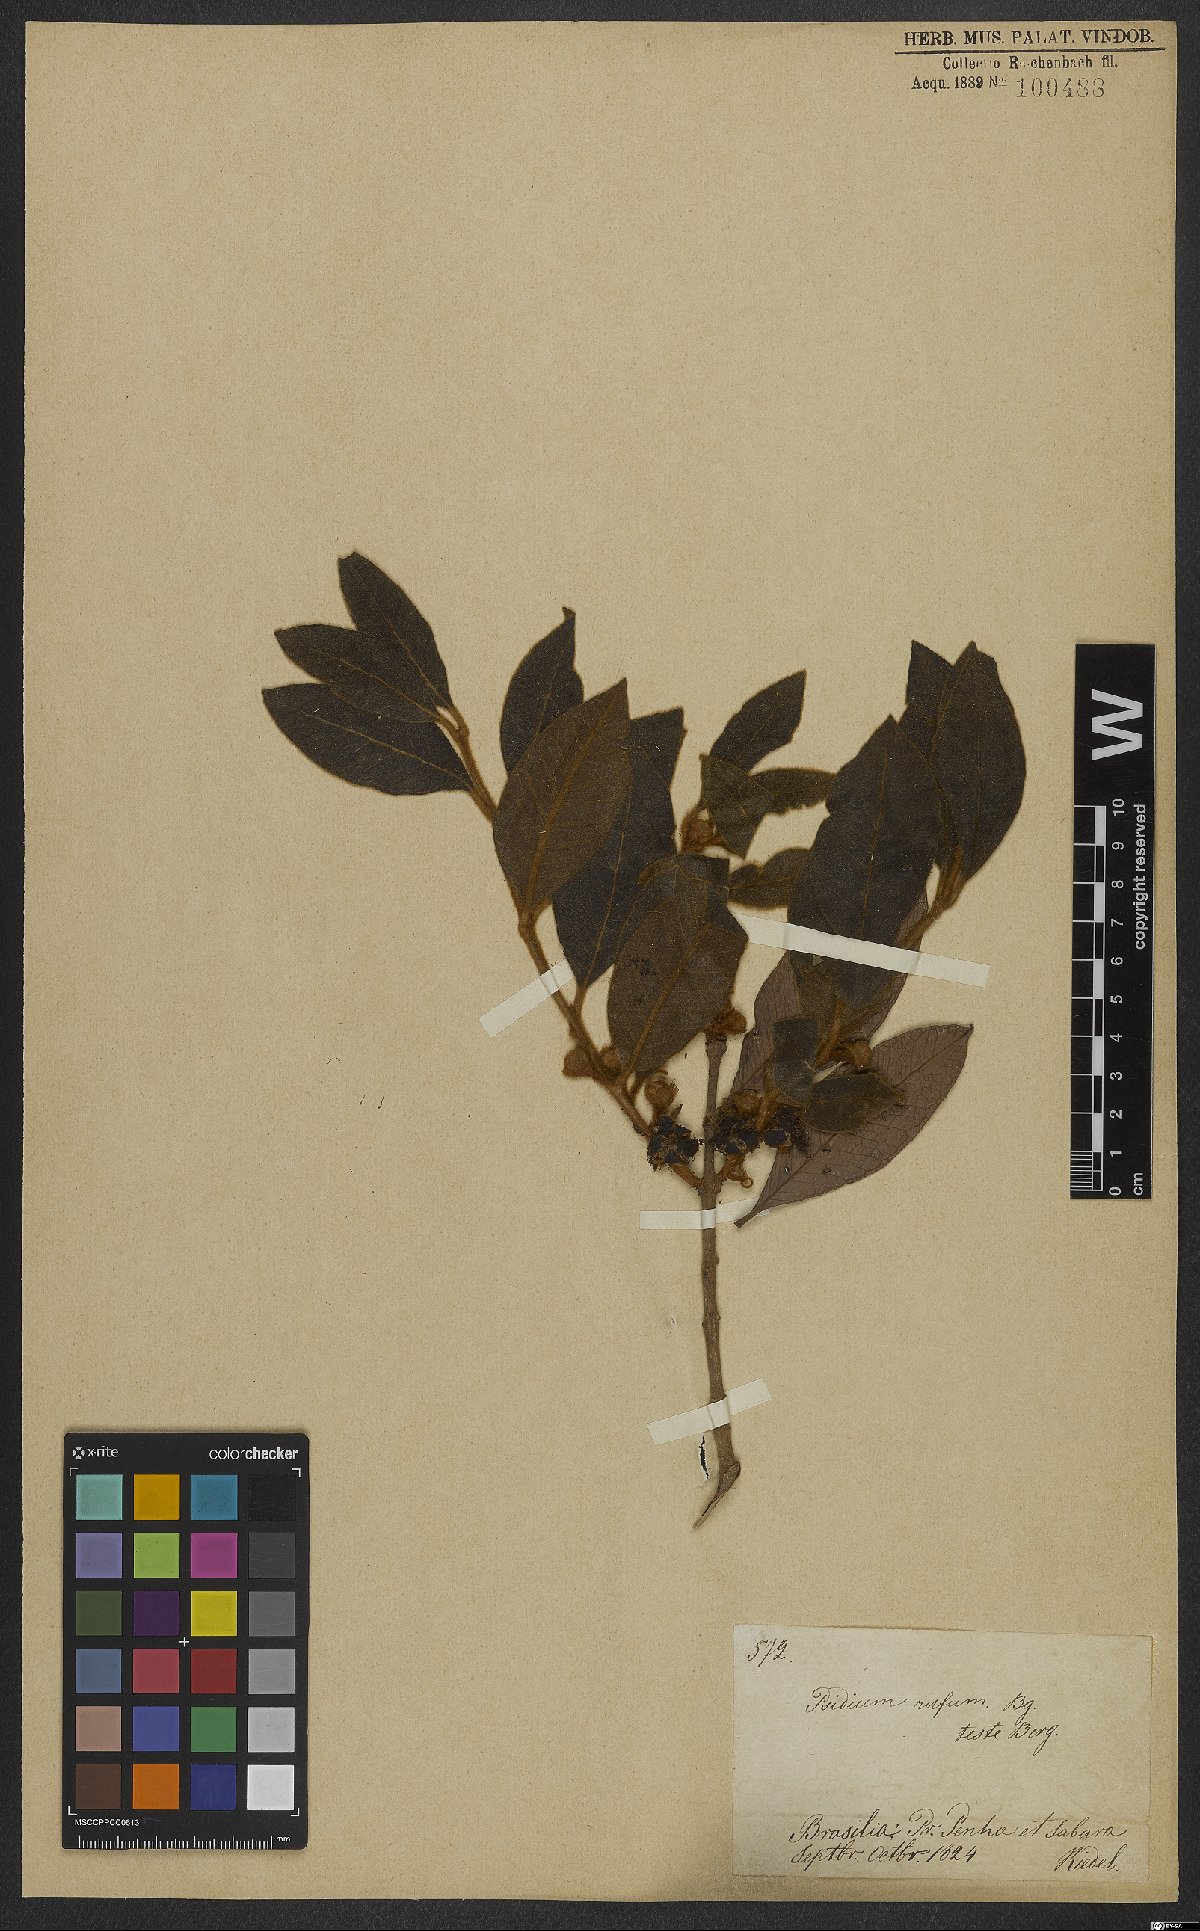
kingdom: Plantae
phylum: Tracheophyta
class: Magnoliopsida
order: Myrtales
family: Myrtaceae
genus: Psidium
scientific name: Psidium rufum
